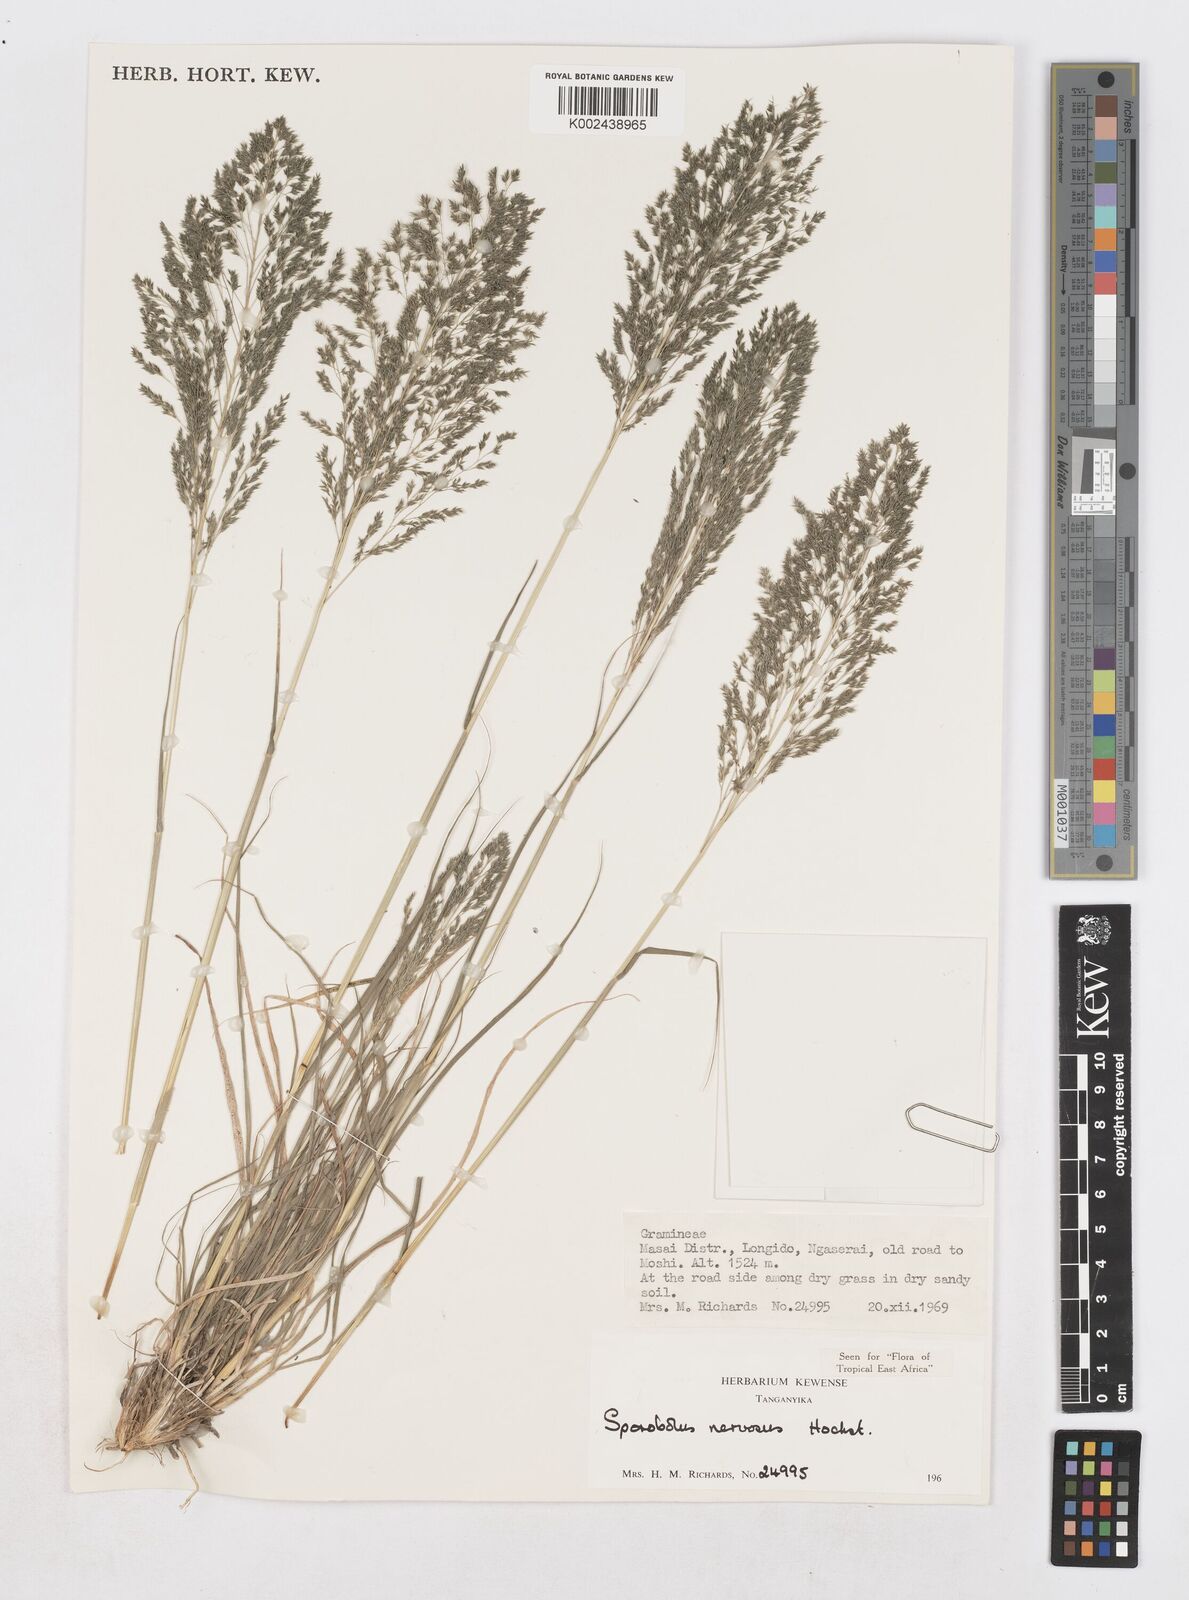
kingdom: Plantae
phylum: Tracheophyta
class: Liliopsida
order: Poales
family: Poaceae
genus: Sporobolus
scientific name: Sporobolus nervosus
